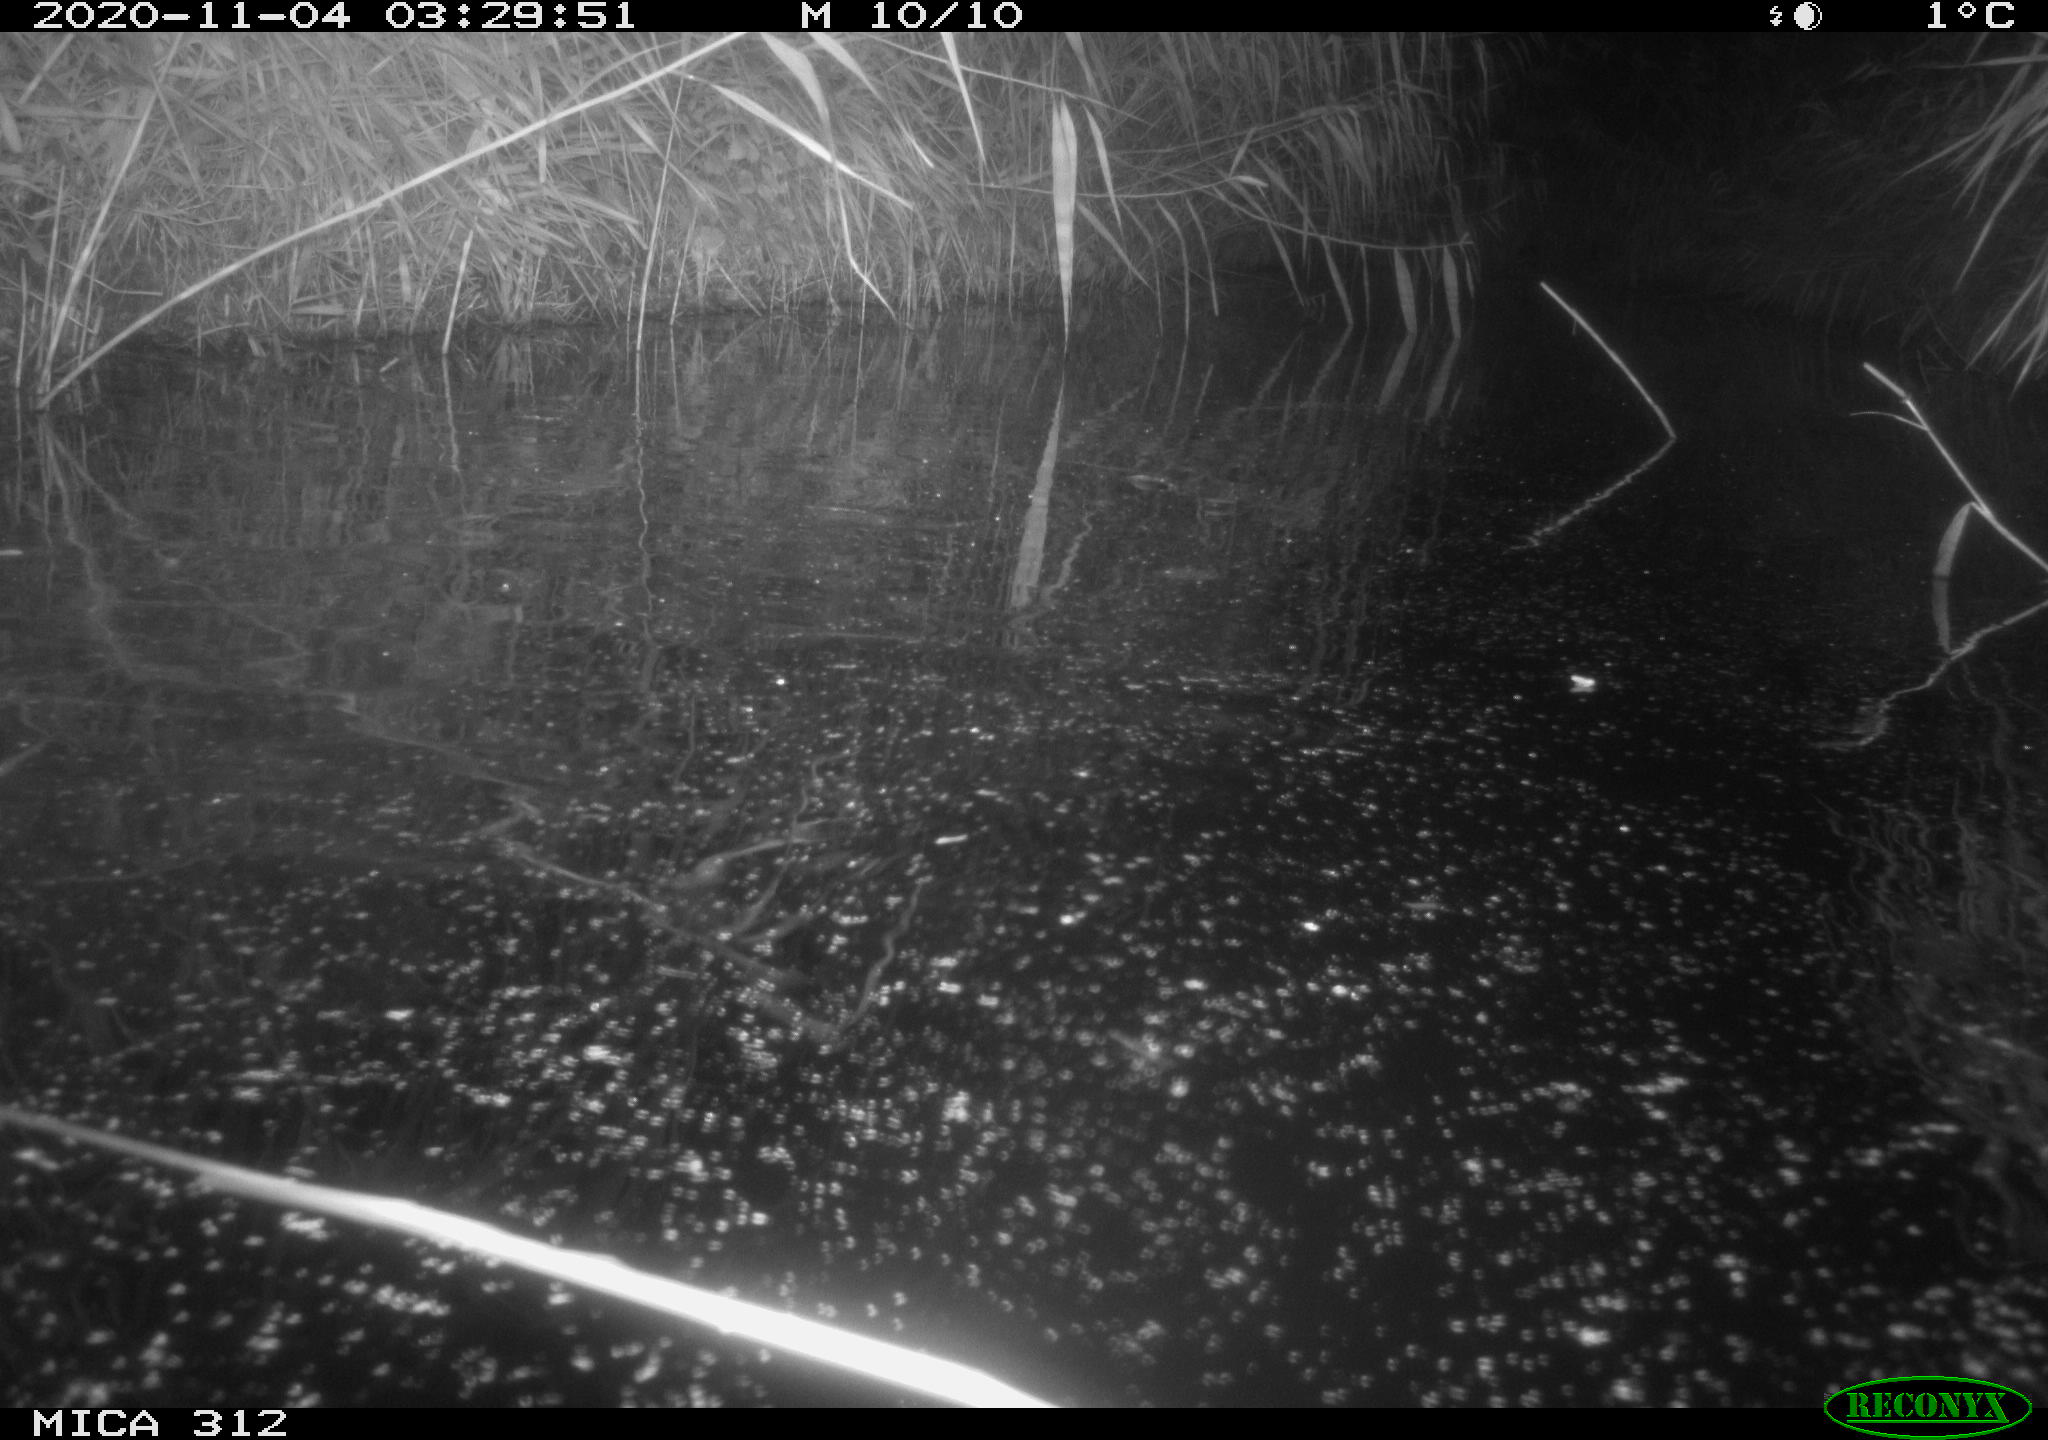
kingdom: Animalia
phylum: Chordata
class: Mammalia
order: Rodentia
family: Cricetidae
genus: Ondatra
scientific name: Ondatra zibethicus
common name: Muskrat
